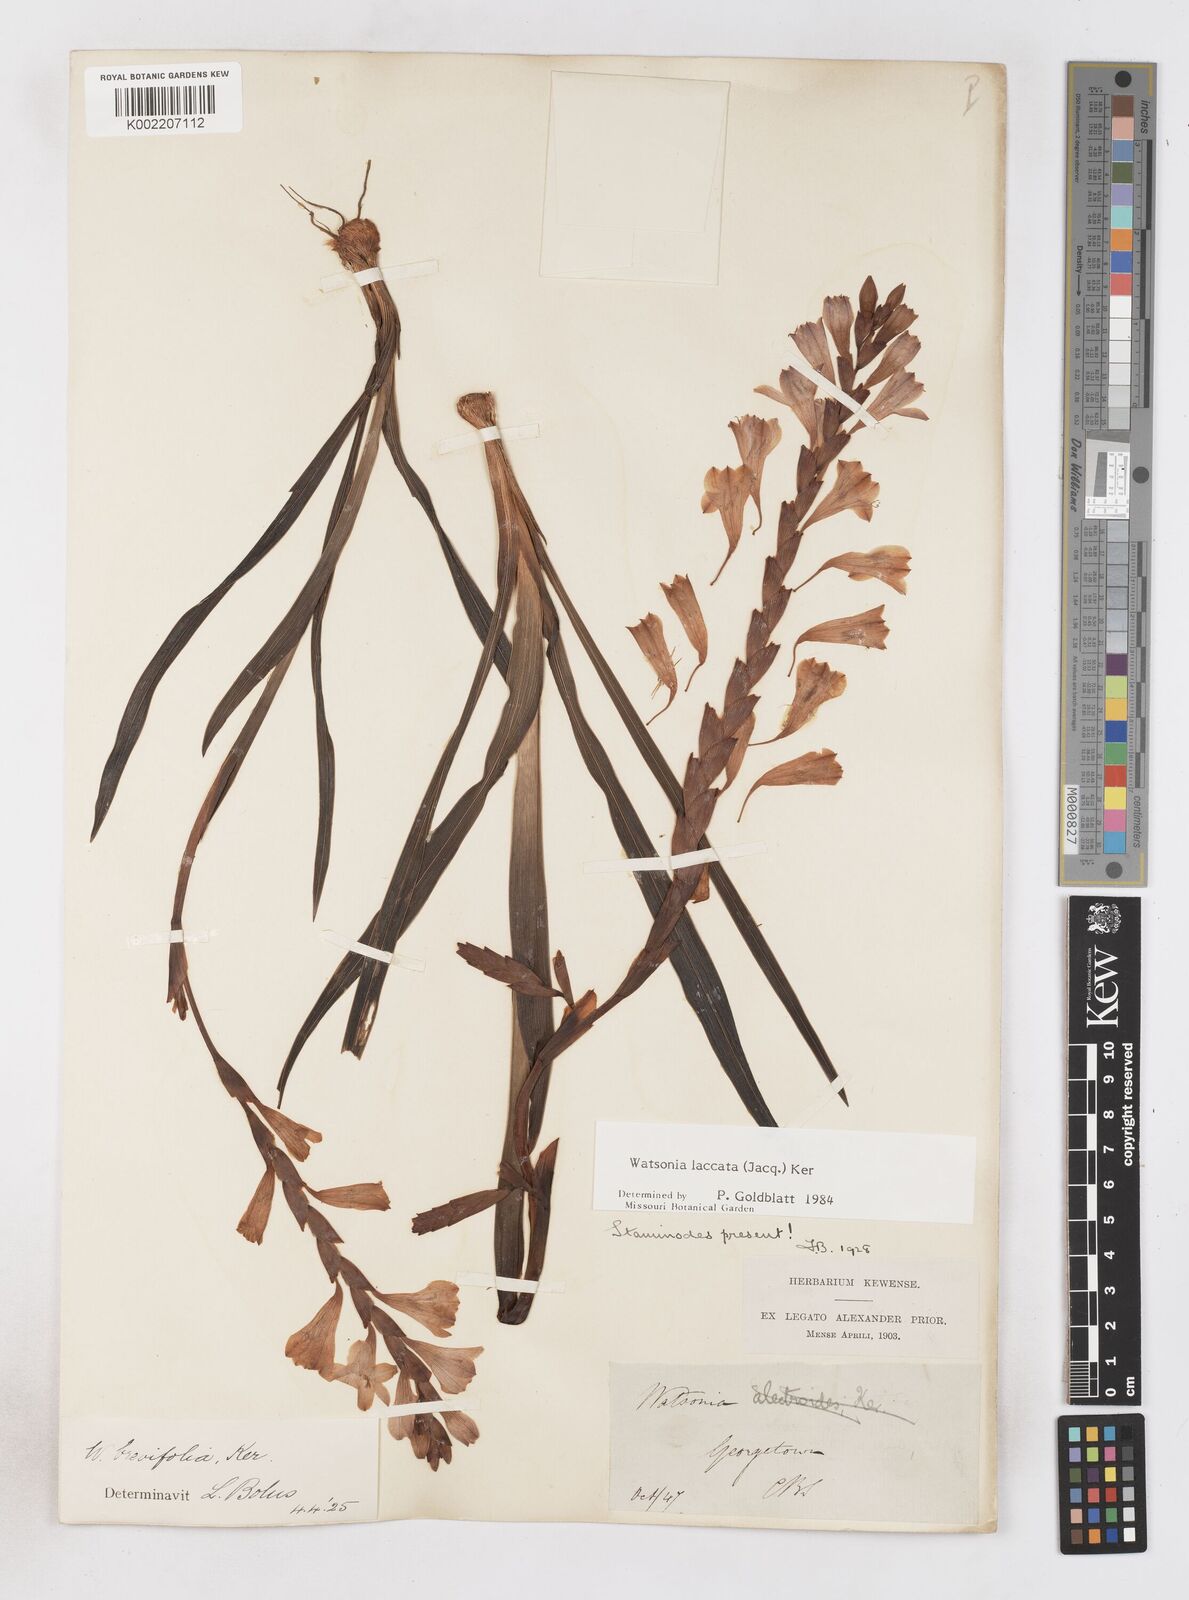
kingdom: Plantae
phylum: Tracheophyta
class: Liliopsida
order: Asparagales
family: Iridaceae
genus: Watsonia
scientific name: Watsonia laccata
